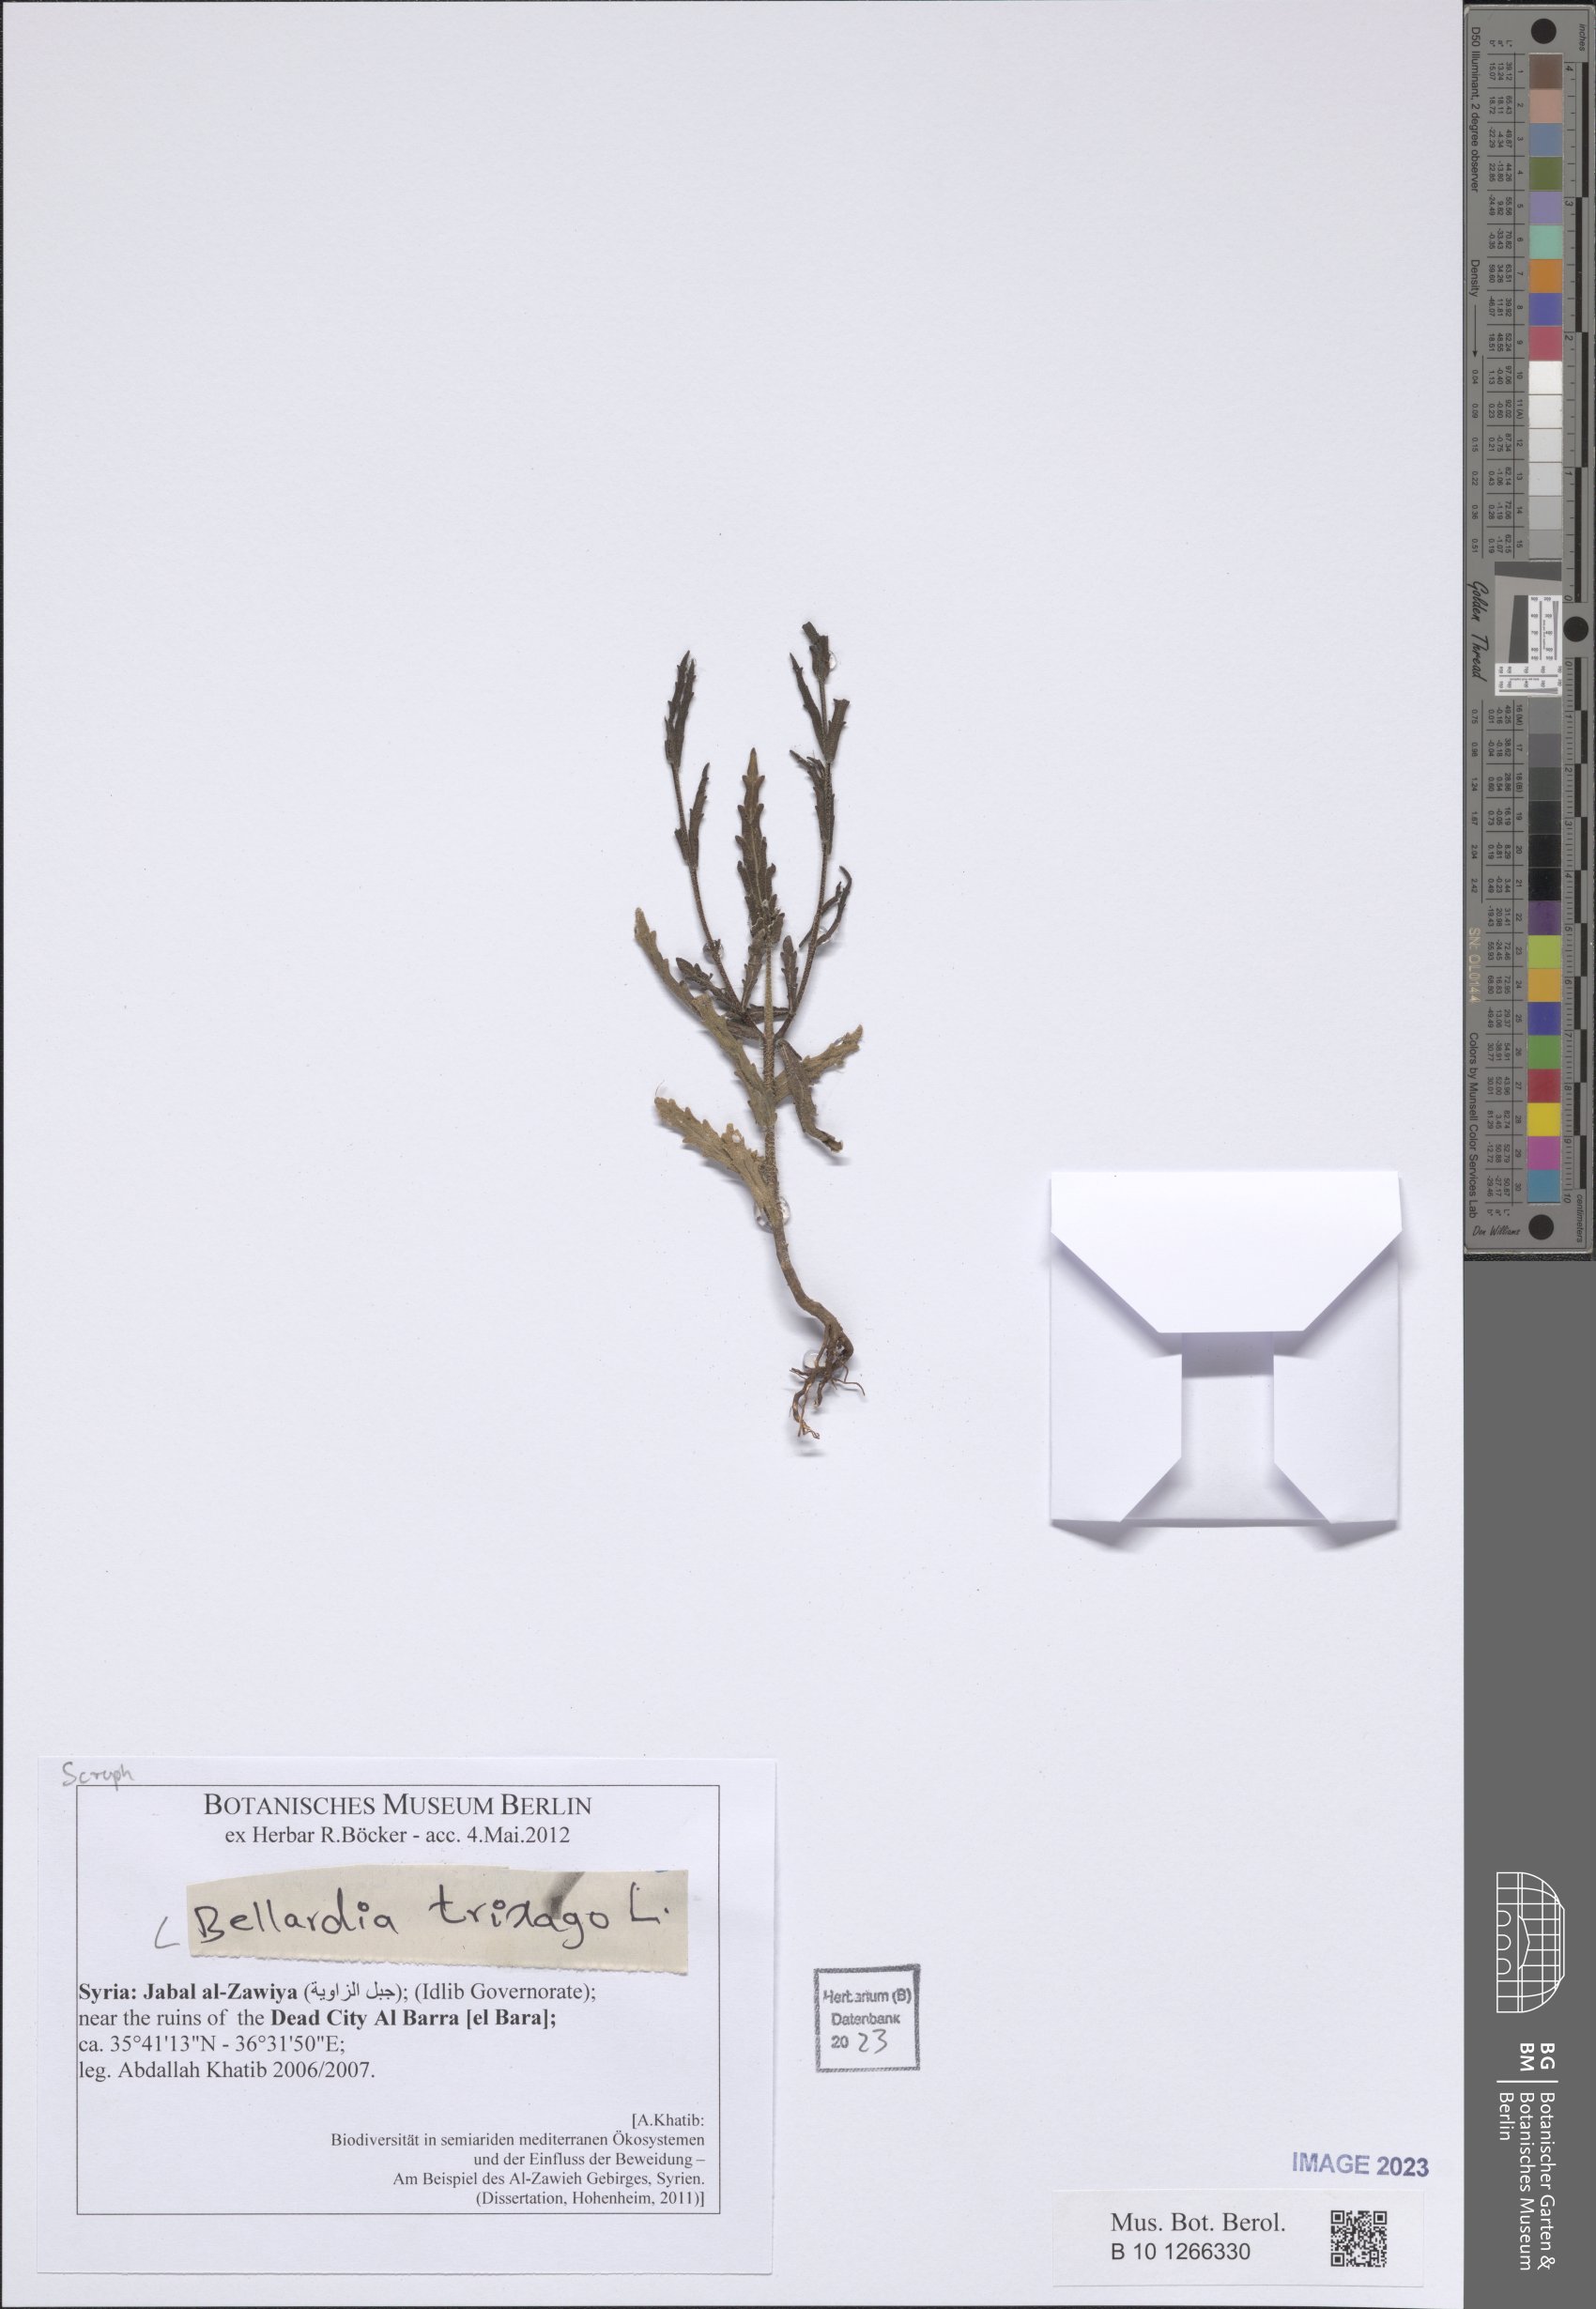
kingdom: Plantae
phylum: Tracheophyta
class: Magnoliopsida
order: Lamiales
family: Orobanchaceae
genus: Bellardia
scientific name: Bellardia trixago
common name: Mediterranean lineseed
